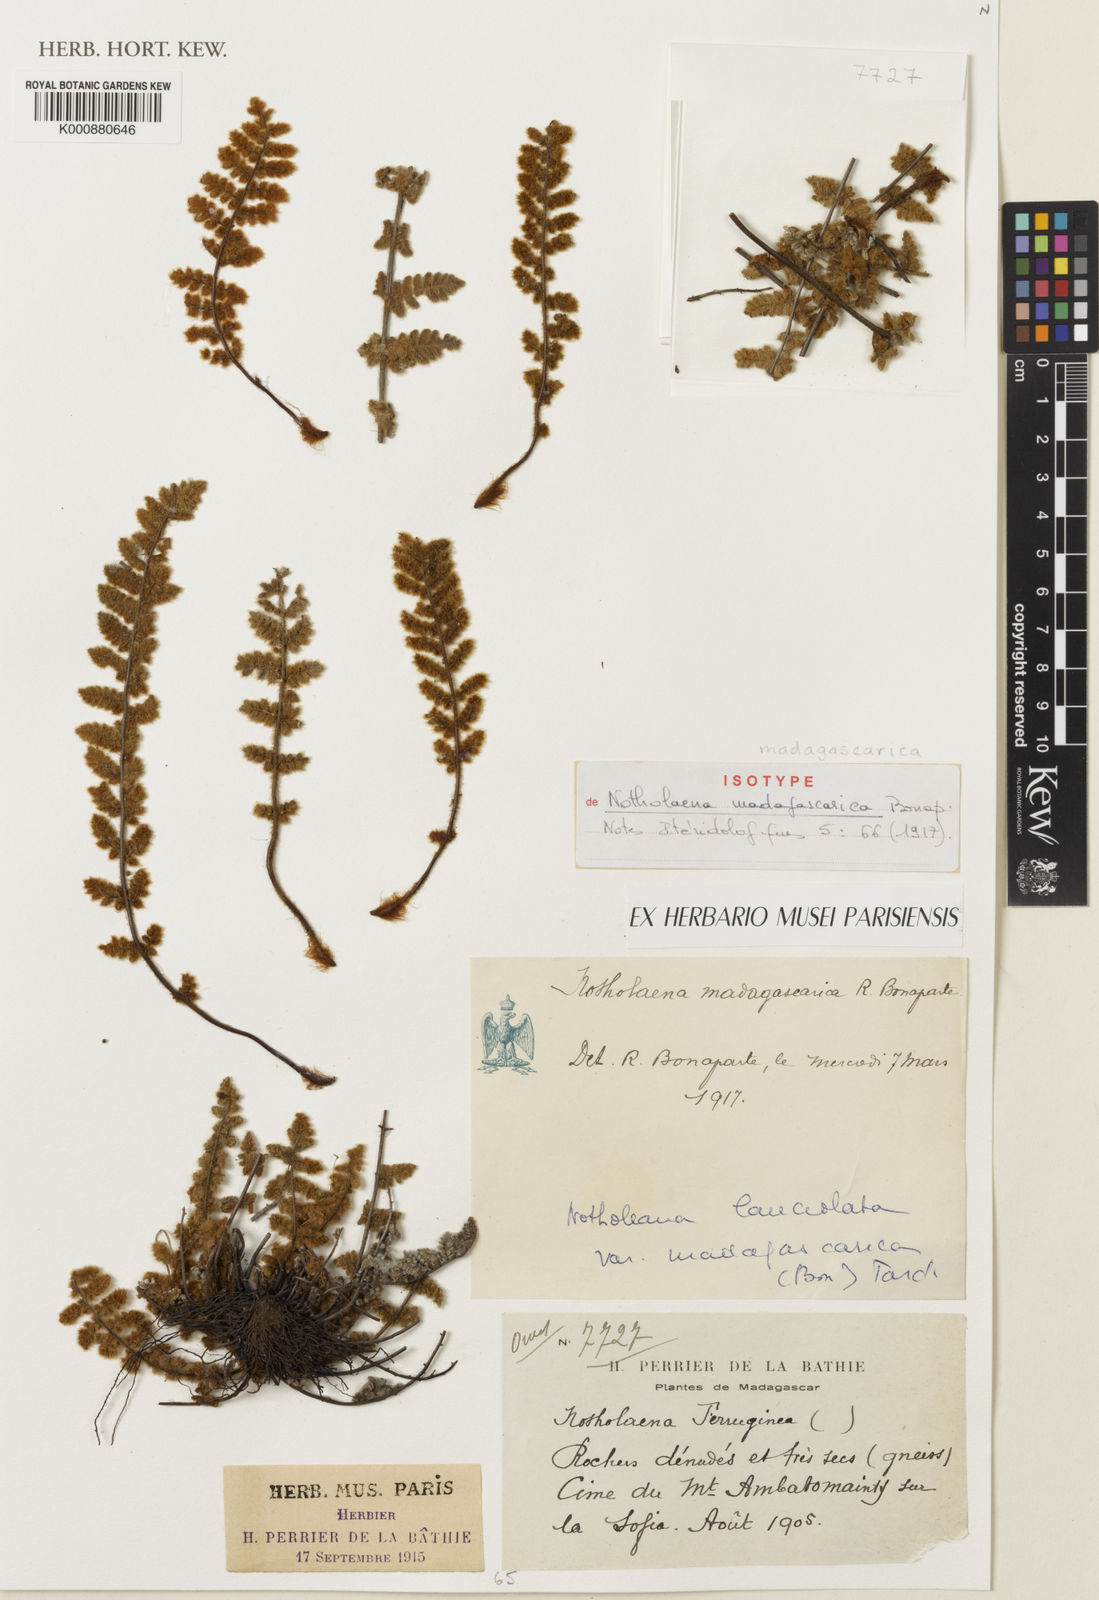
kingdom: Plantae
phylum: Tracheophyta
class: Polypodiopsida
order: Polypodiales
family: Pteridaceae
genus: Cheilanthes
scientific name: Cheilanthes perrieri
